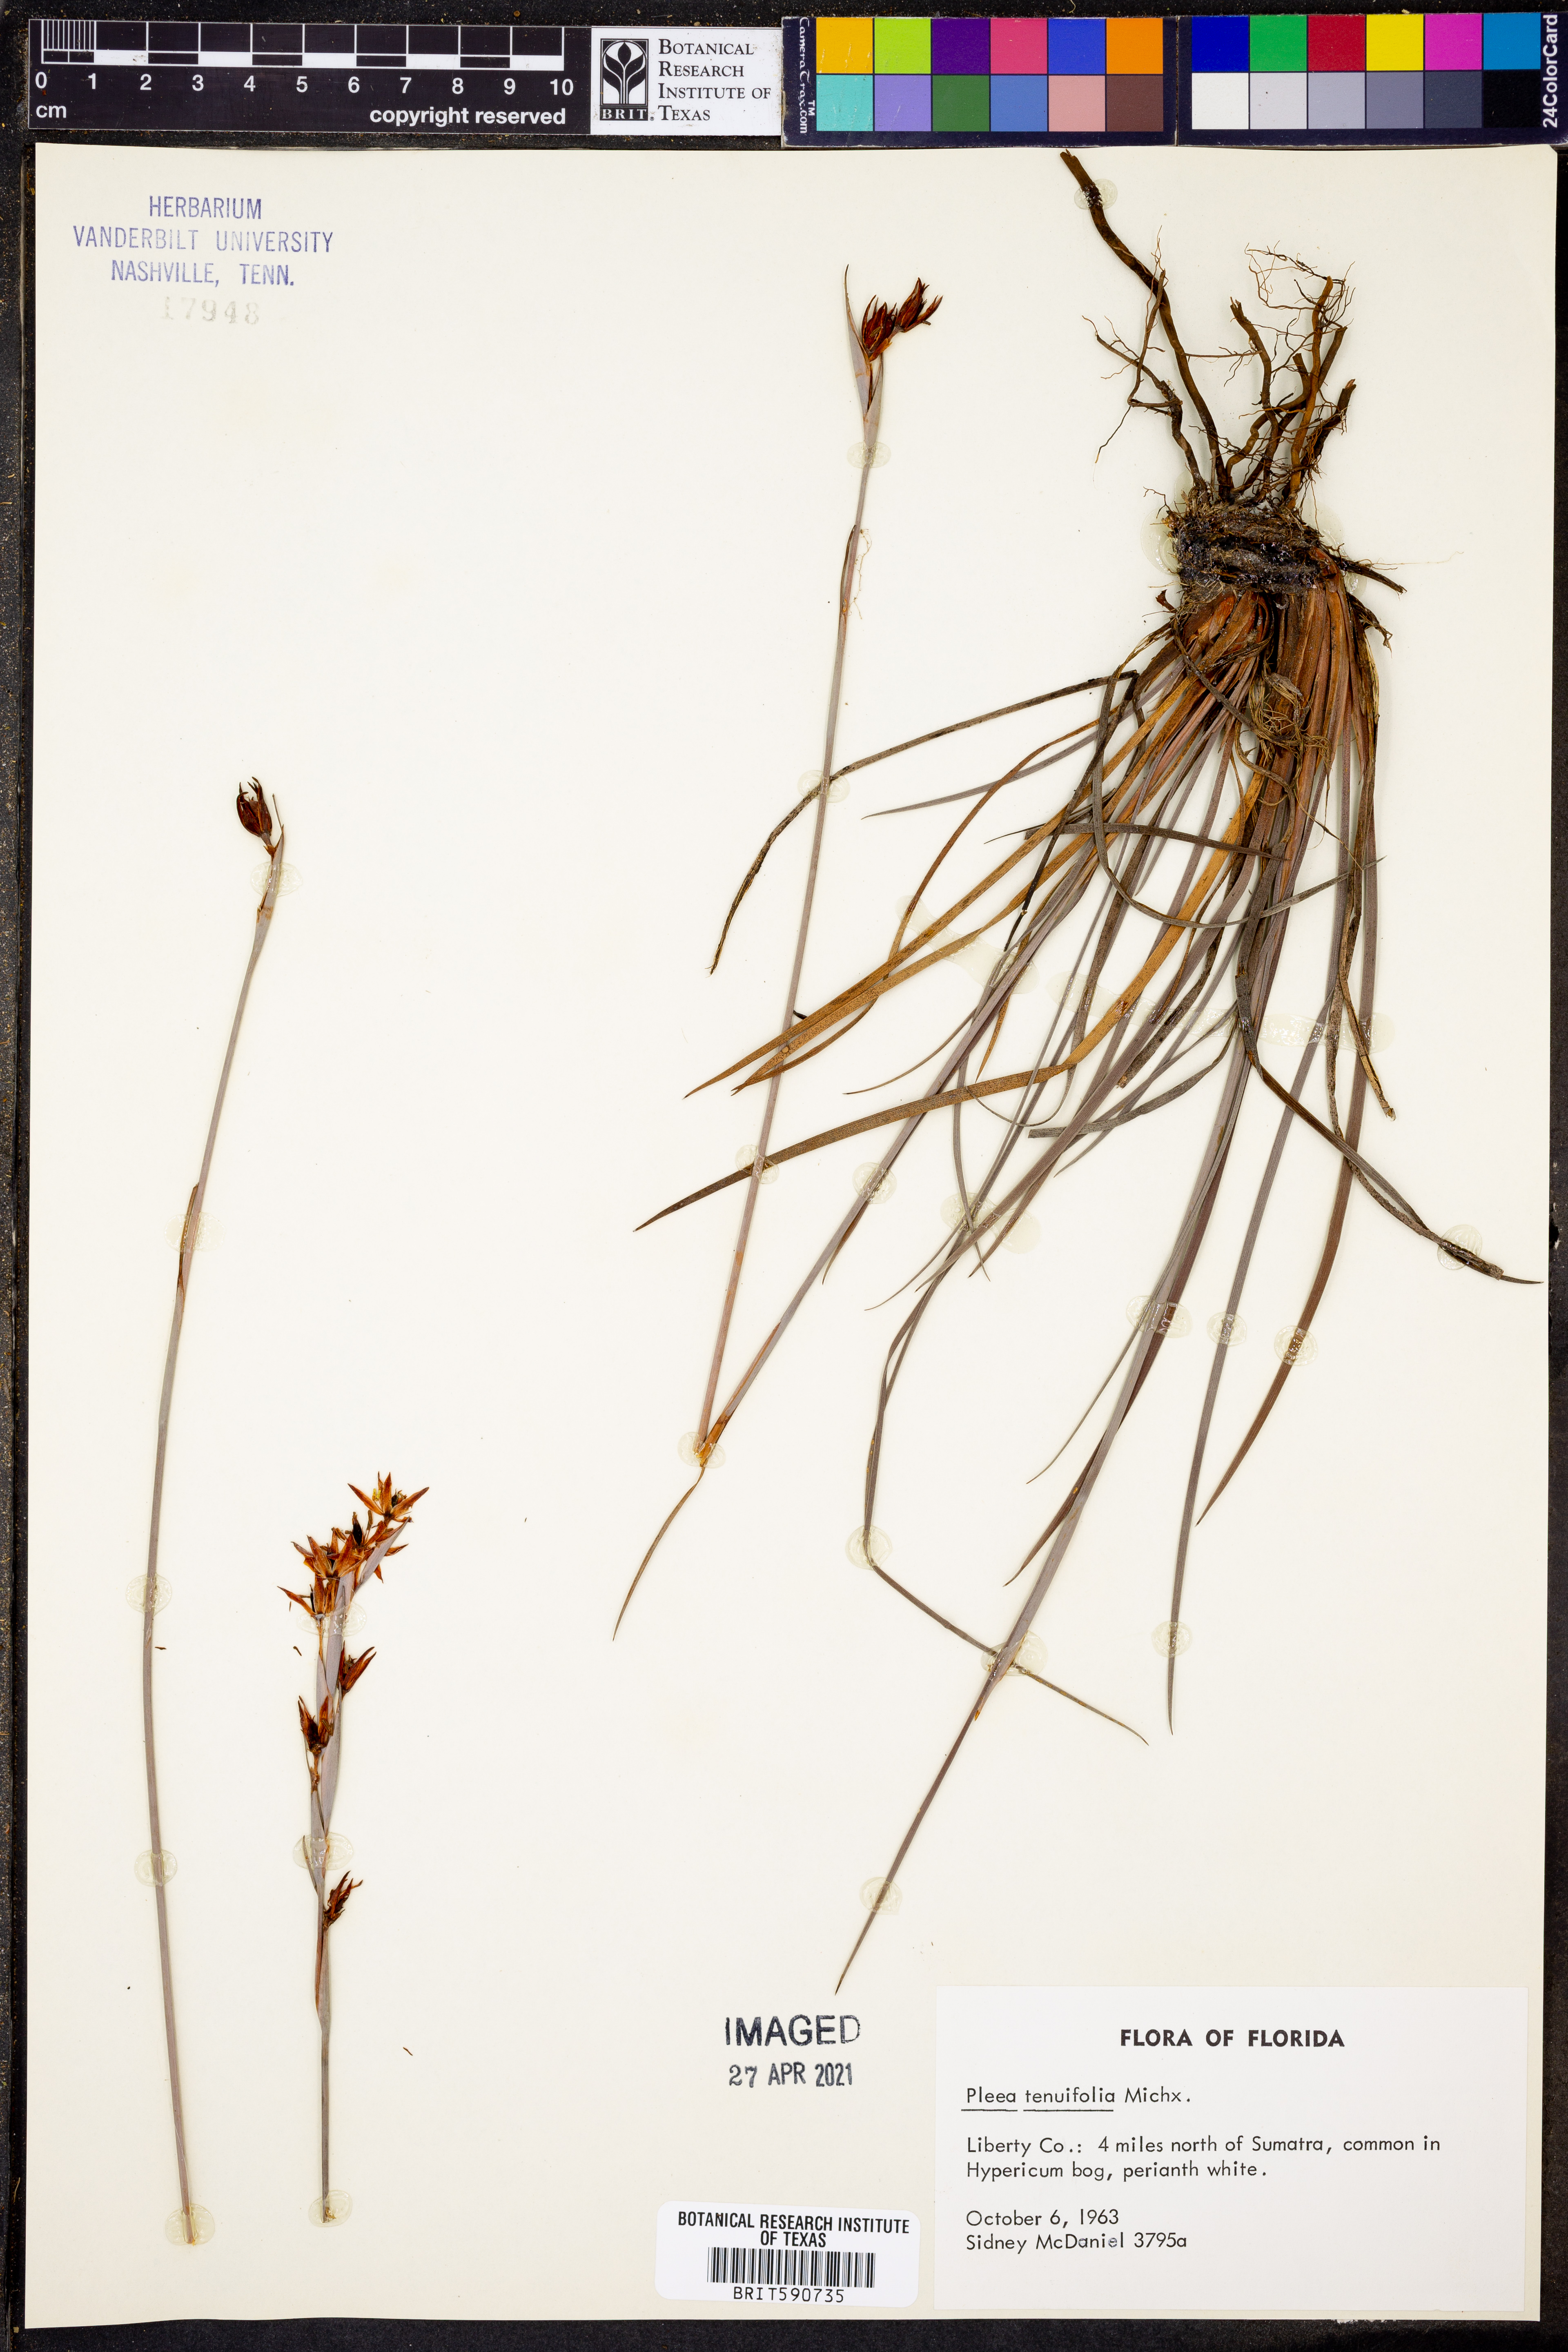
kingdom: Plantae
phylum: Tracheophyta
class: Liliopsida
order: Alismatales
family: Tofieldiaceae
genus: Pleea
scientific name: Pleea tenuifolia
